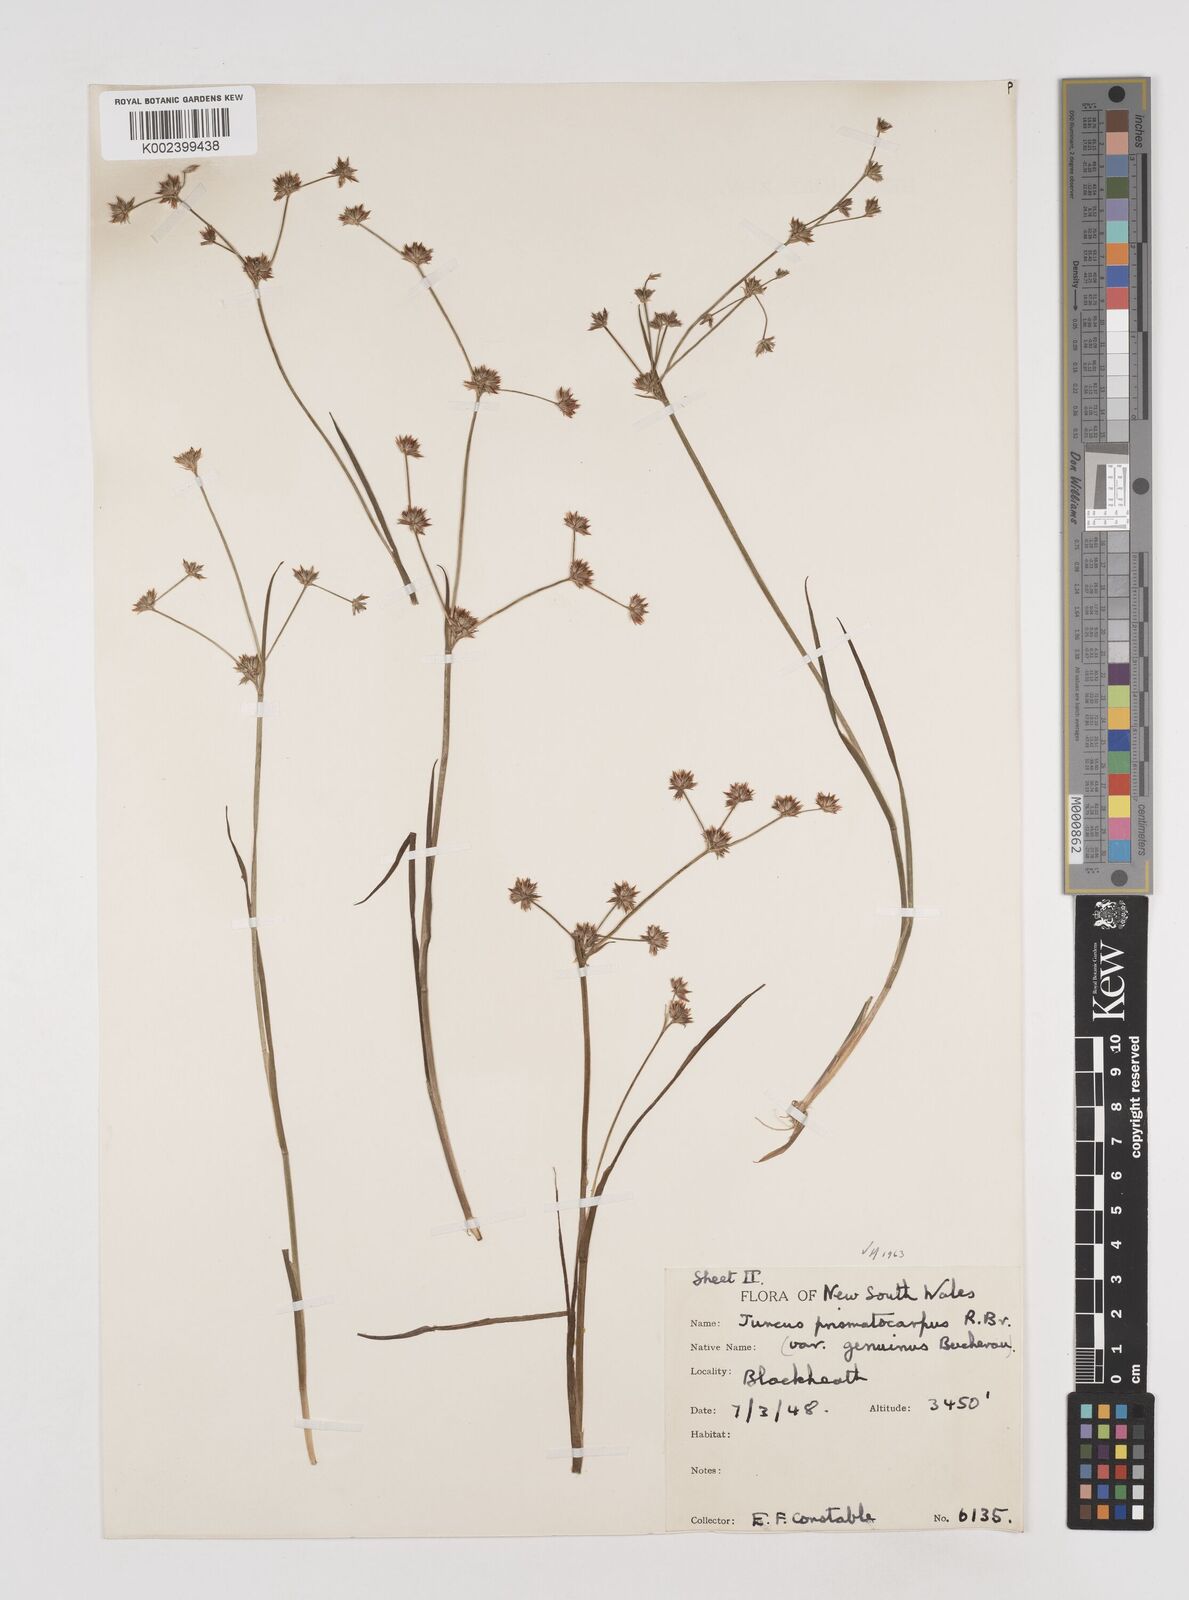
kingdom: Plantae
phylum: Tracheophyta
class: Liliopsida
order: Poales
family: Juncaceae
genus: Juncus
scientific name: Juncus prismatocarpus
